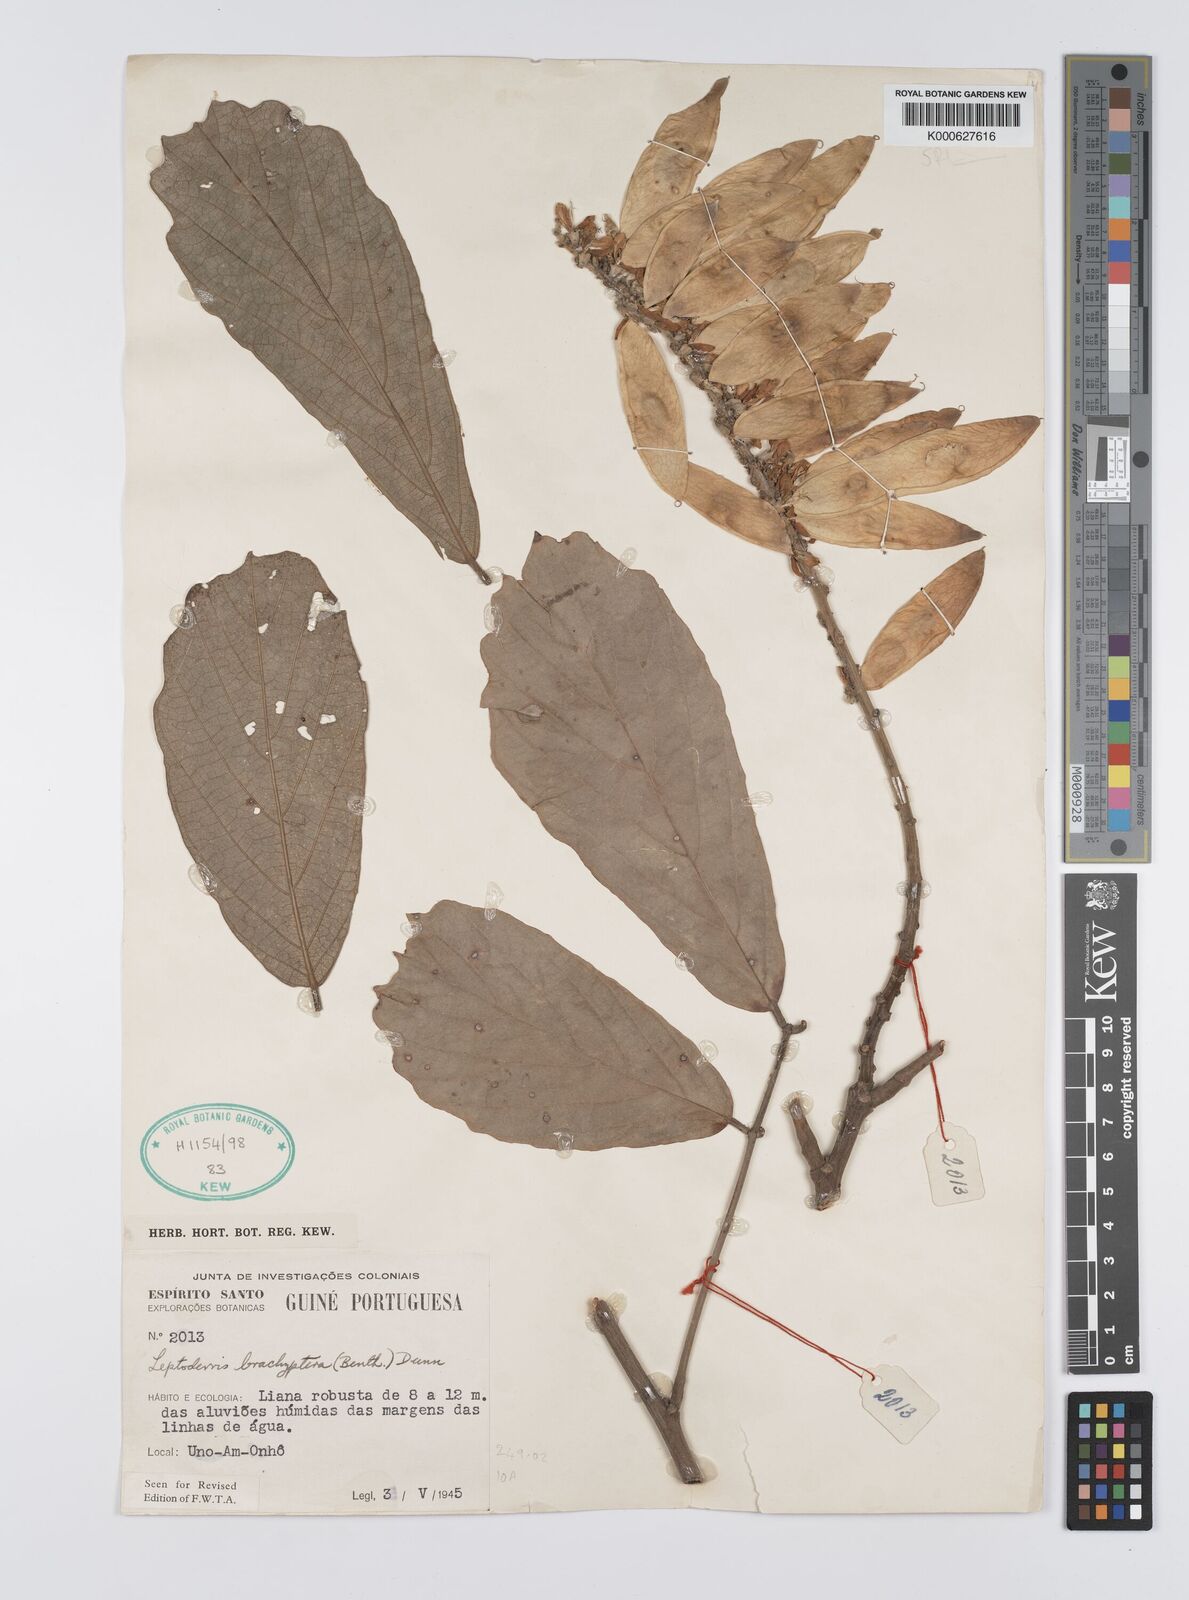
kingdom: Plantae
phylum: Tracheophyta
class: Magnoliopsida
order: Fabales
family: Fabaceae
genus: Leptoderris
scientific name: Leptoderris brachyptera
